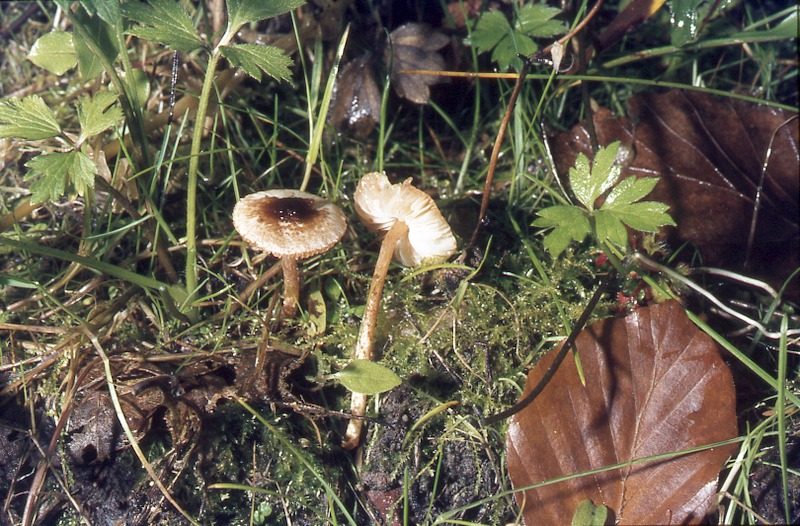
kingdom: Fungi
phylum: Basidiomycota
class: Agaricomycetes
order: Agaricales
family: Agaricaceae
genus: Lepiota
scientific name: Lepiota castanea
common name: Chestnut dapperling
